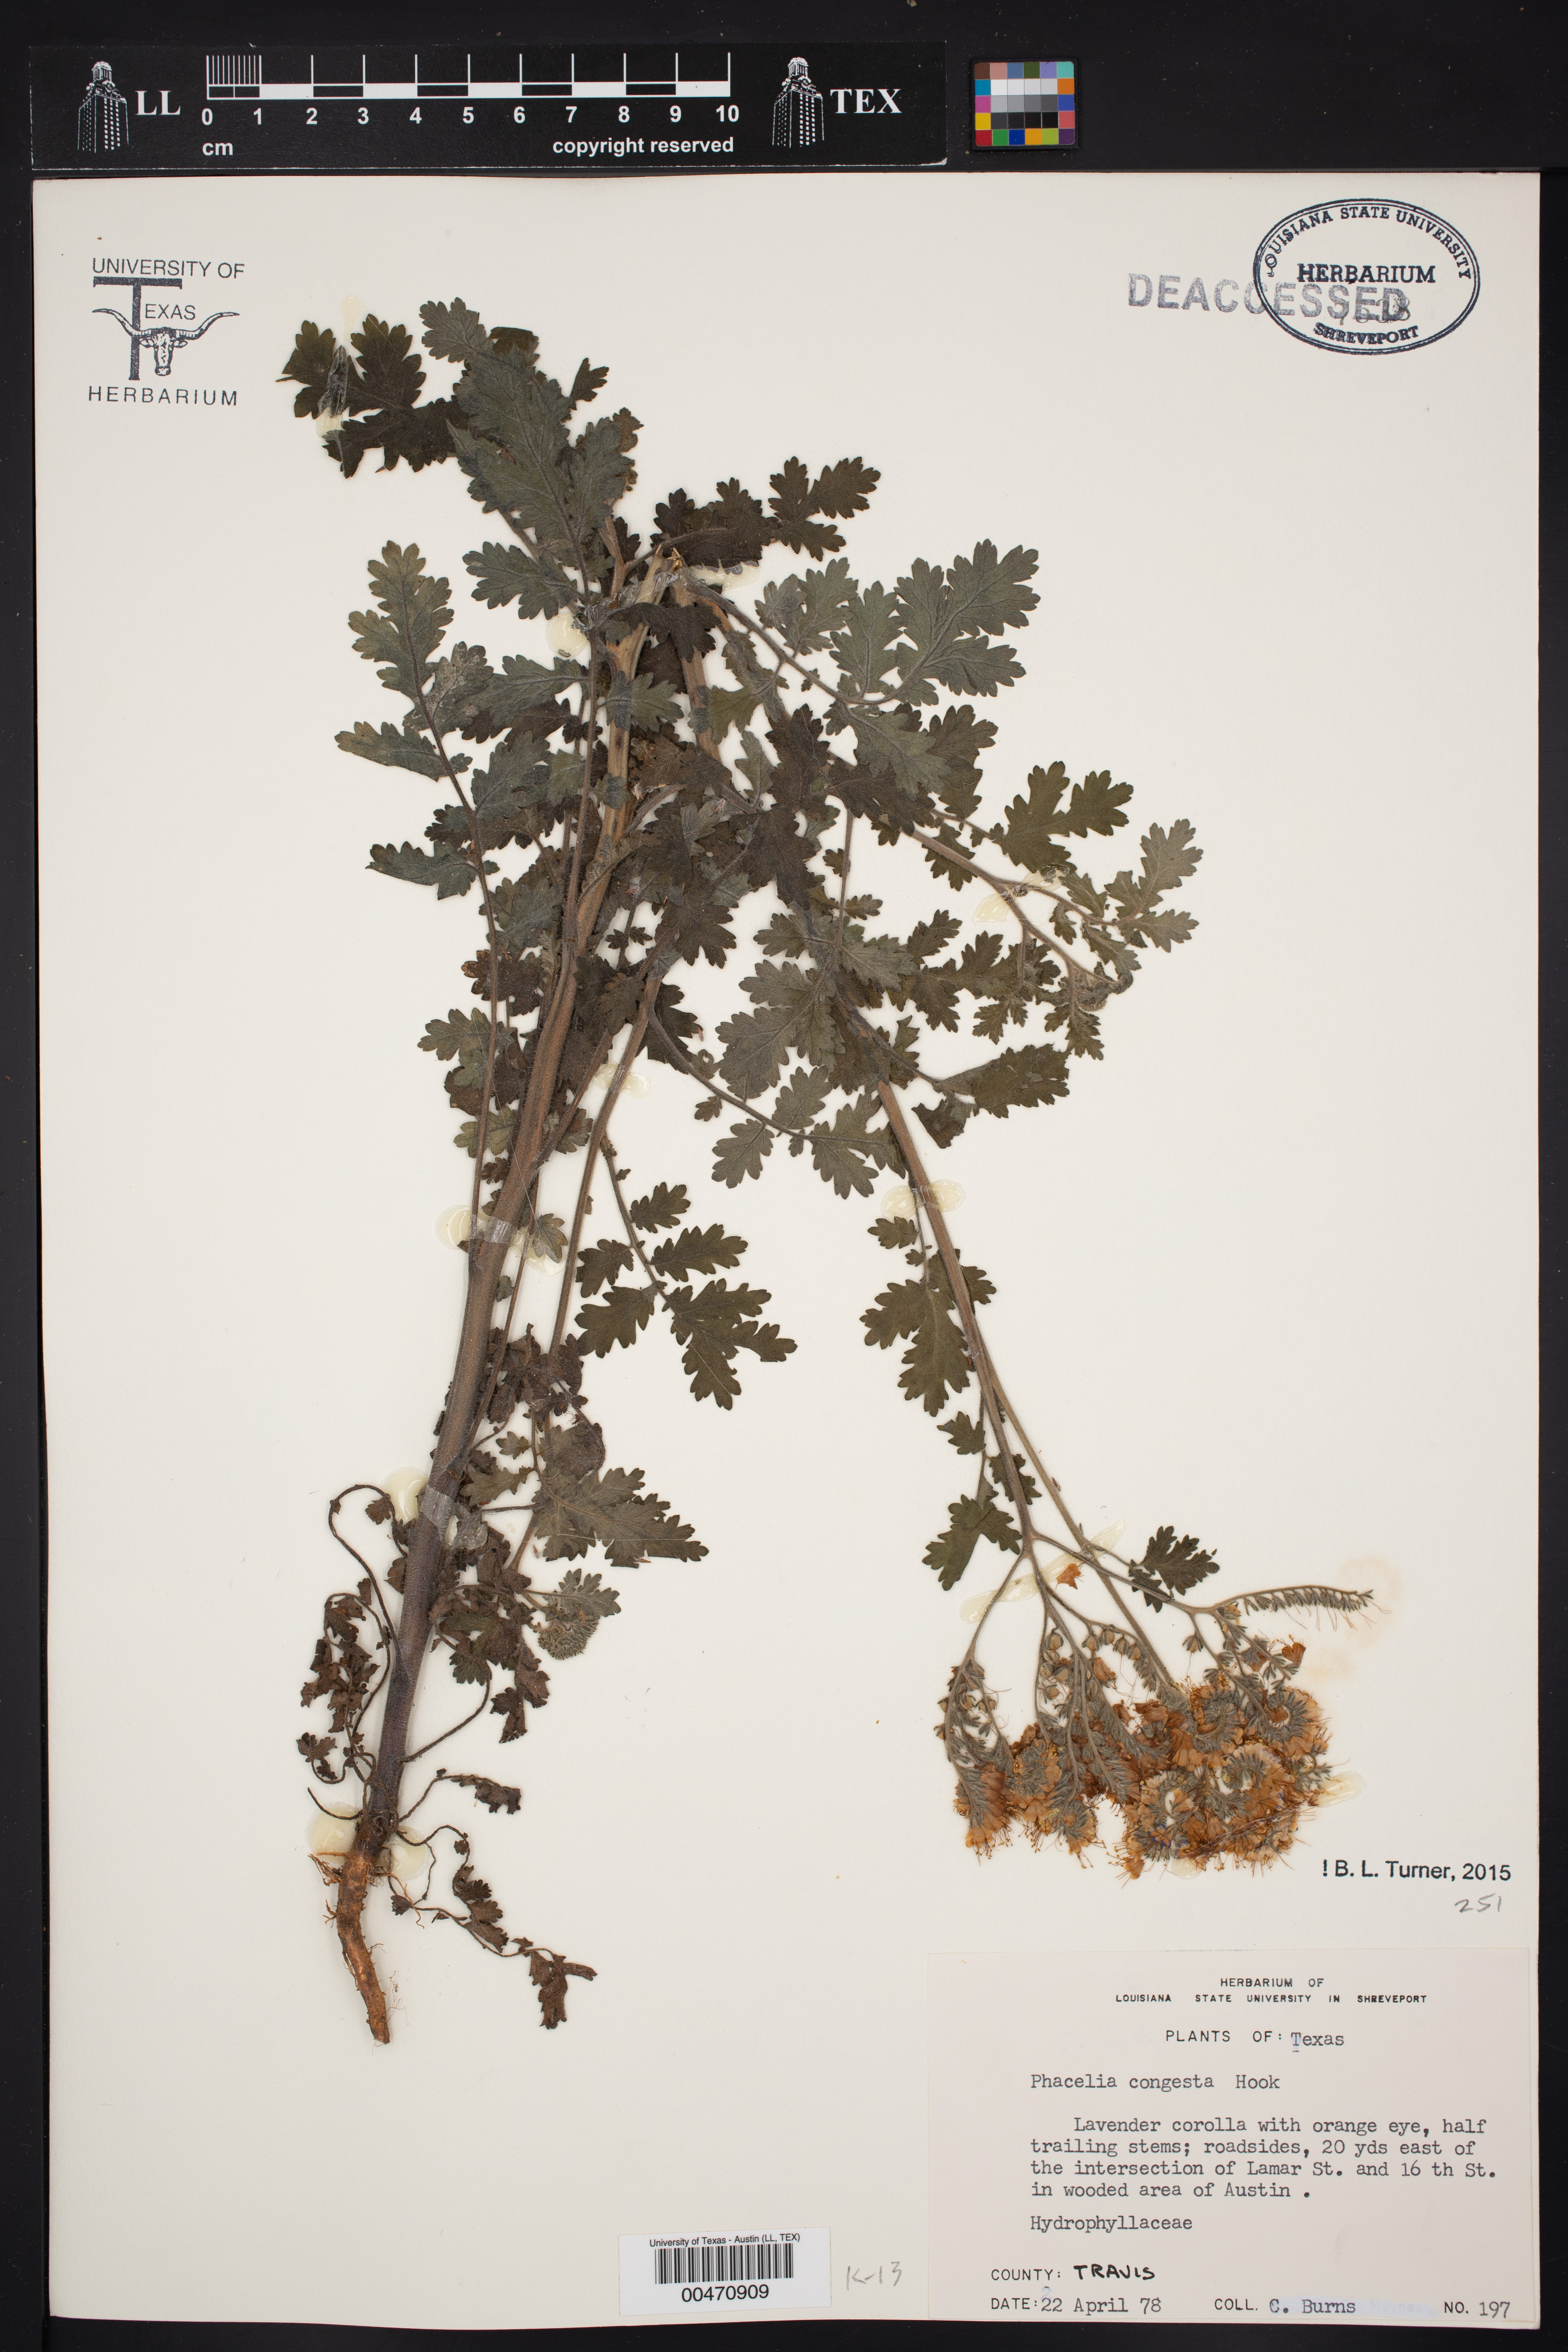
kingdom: Plantae
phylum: Tracheophyta
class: Magnoliopsida
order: Boraginales
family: Hydrophyllaceae
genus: Phacelia
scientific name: Phacelia congesta
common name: Blue curls
